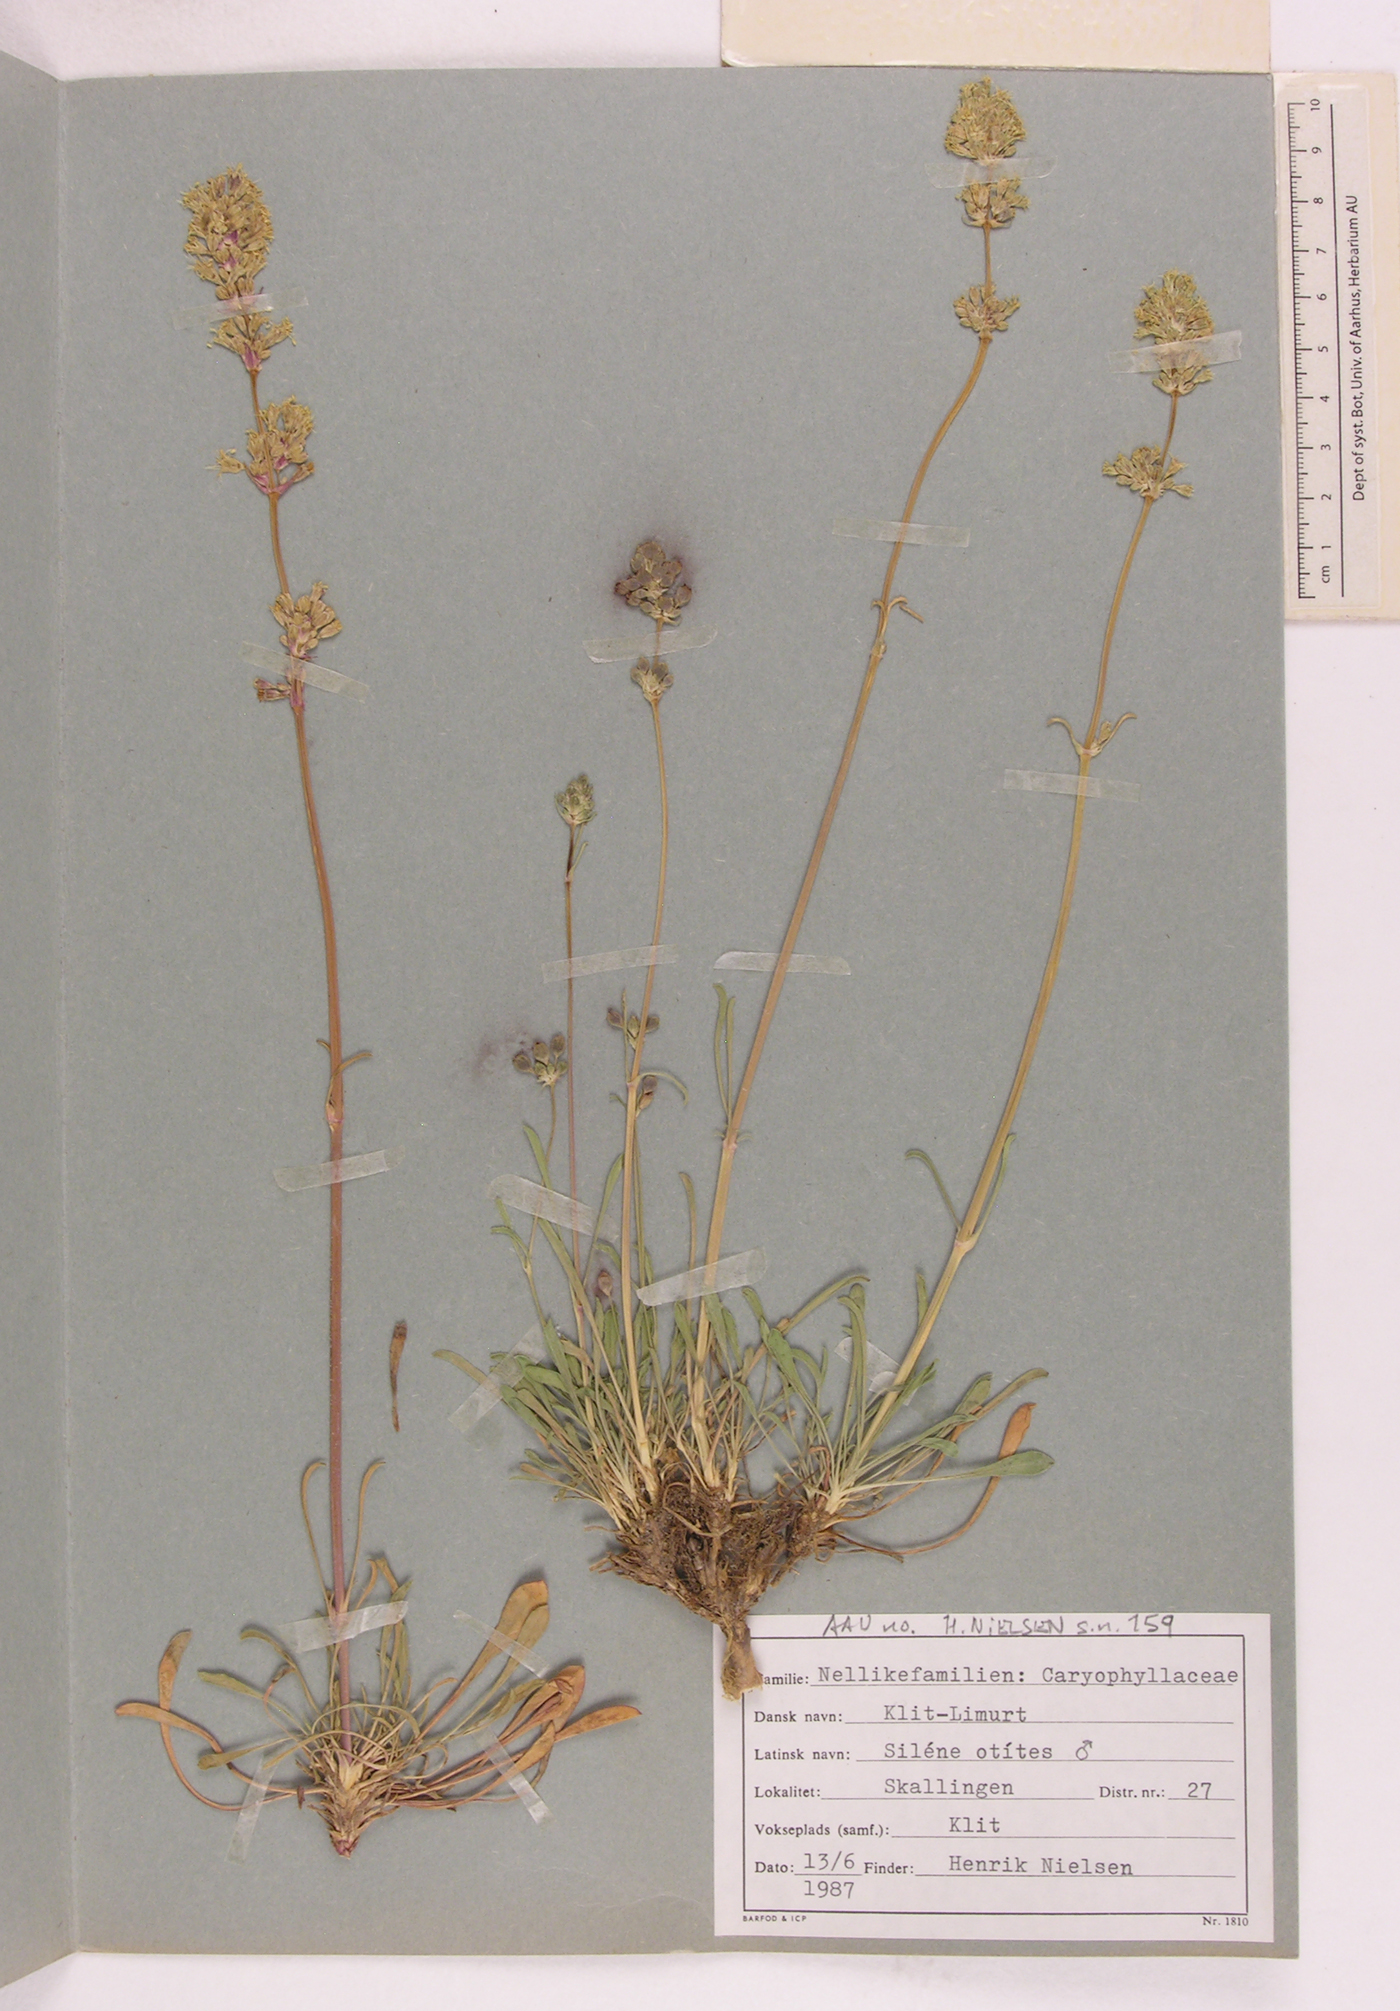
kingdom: Plantae
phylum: Tracheophyta
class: Magnoliopsida
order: Caryophyllales
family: Caryophyllaceae
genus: Silene
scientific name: Silene otites
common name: Spanish catchfly
